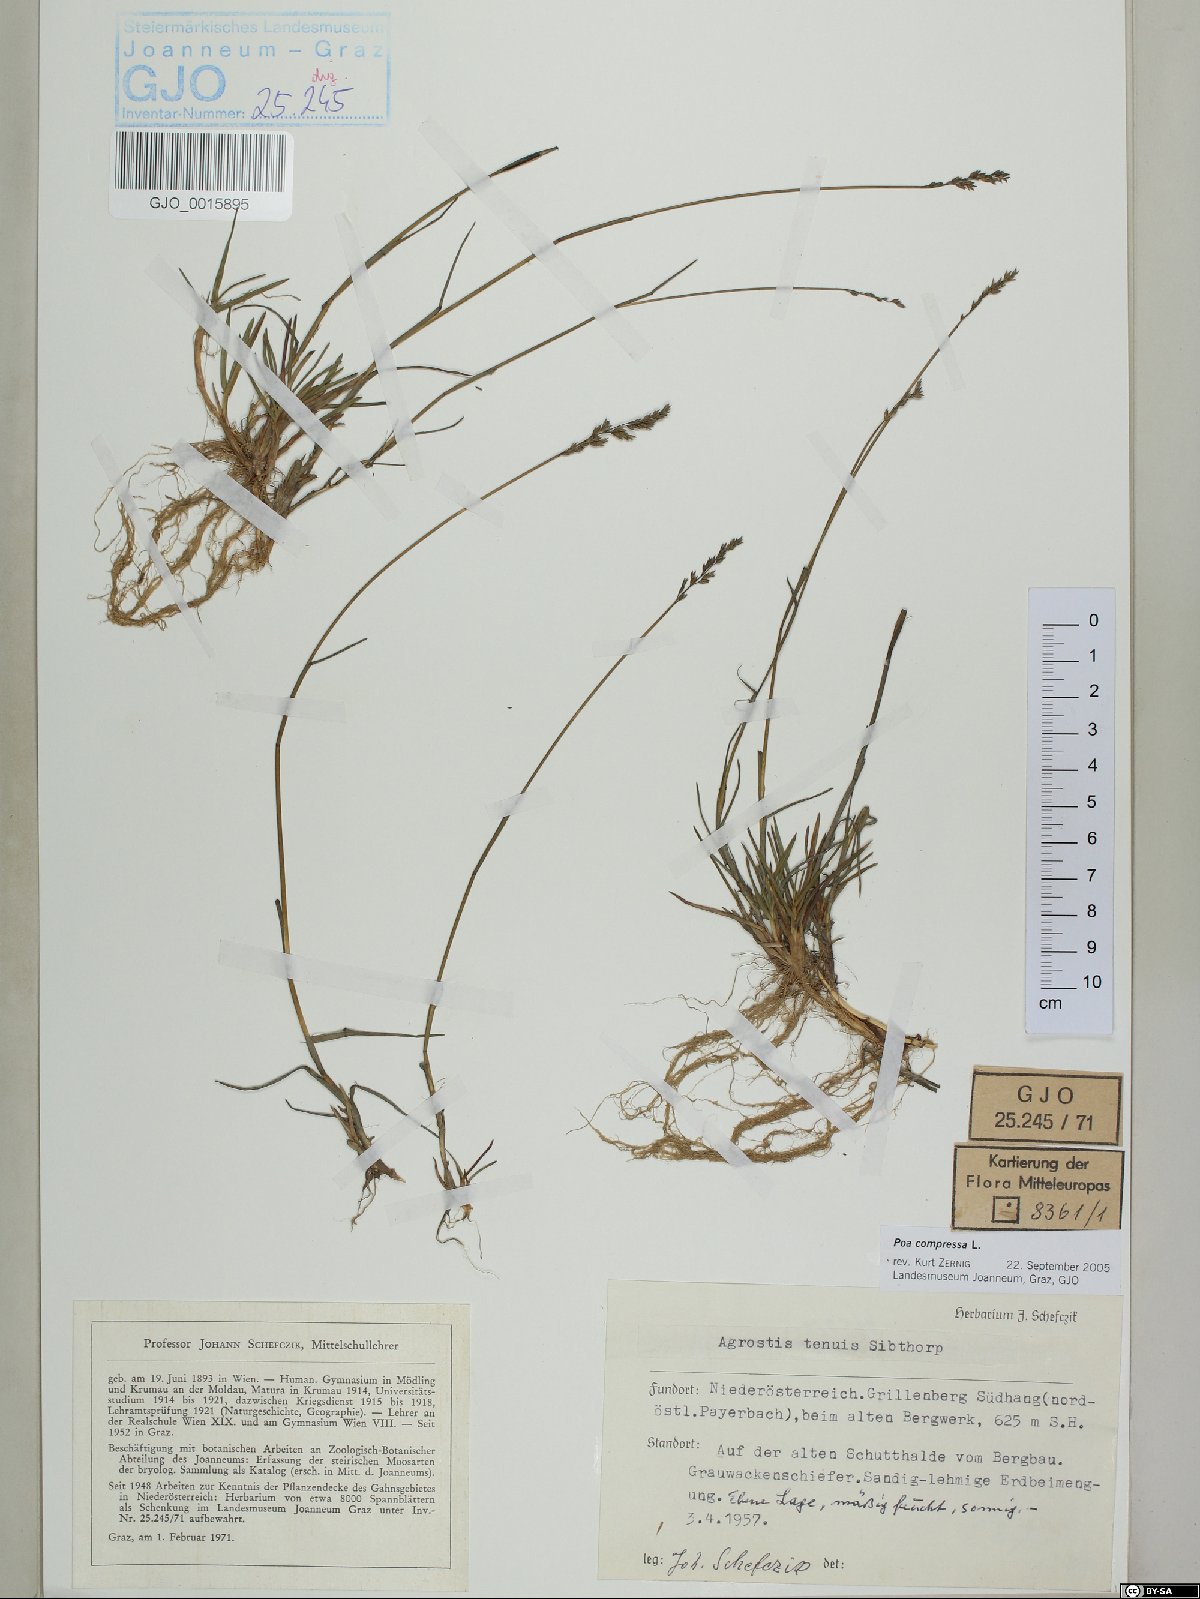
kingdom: Plantae
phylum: Tracheophyta
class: Liliopsida
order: Poales
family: Poaceae
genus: Poa
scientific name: Poa compressa
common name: Canada bluegrass
